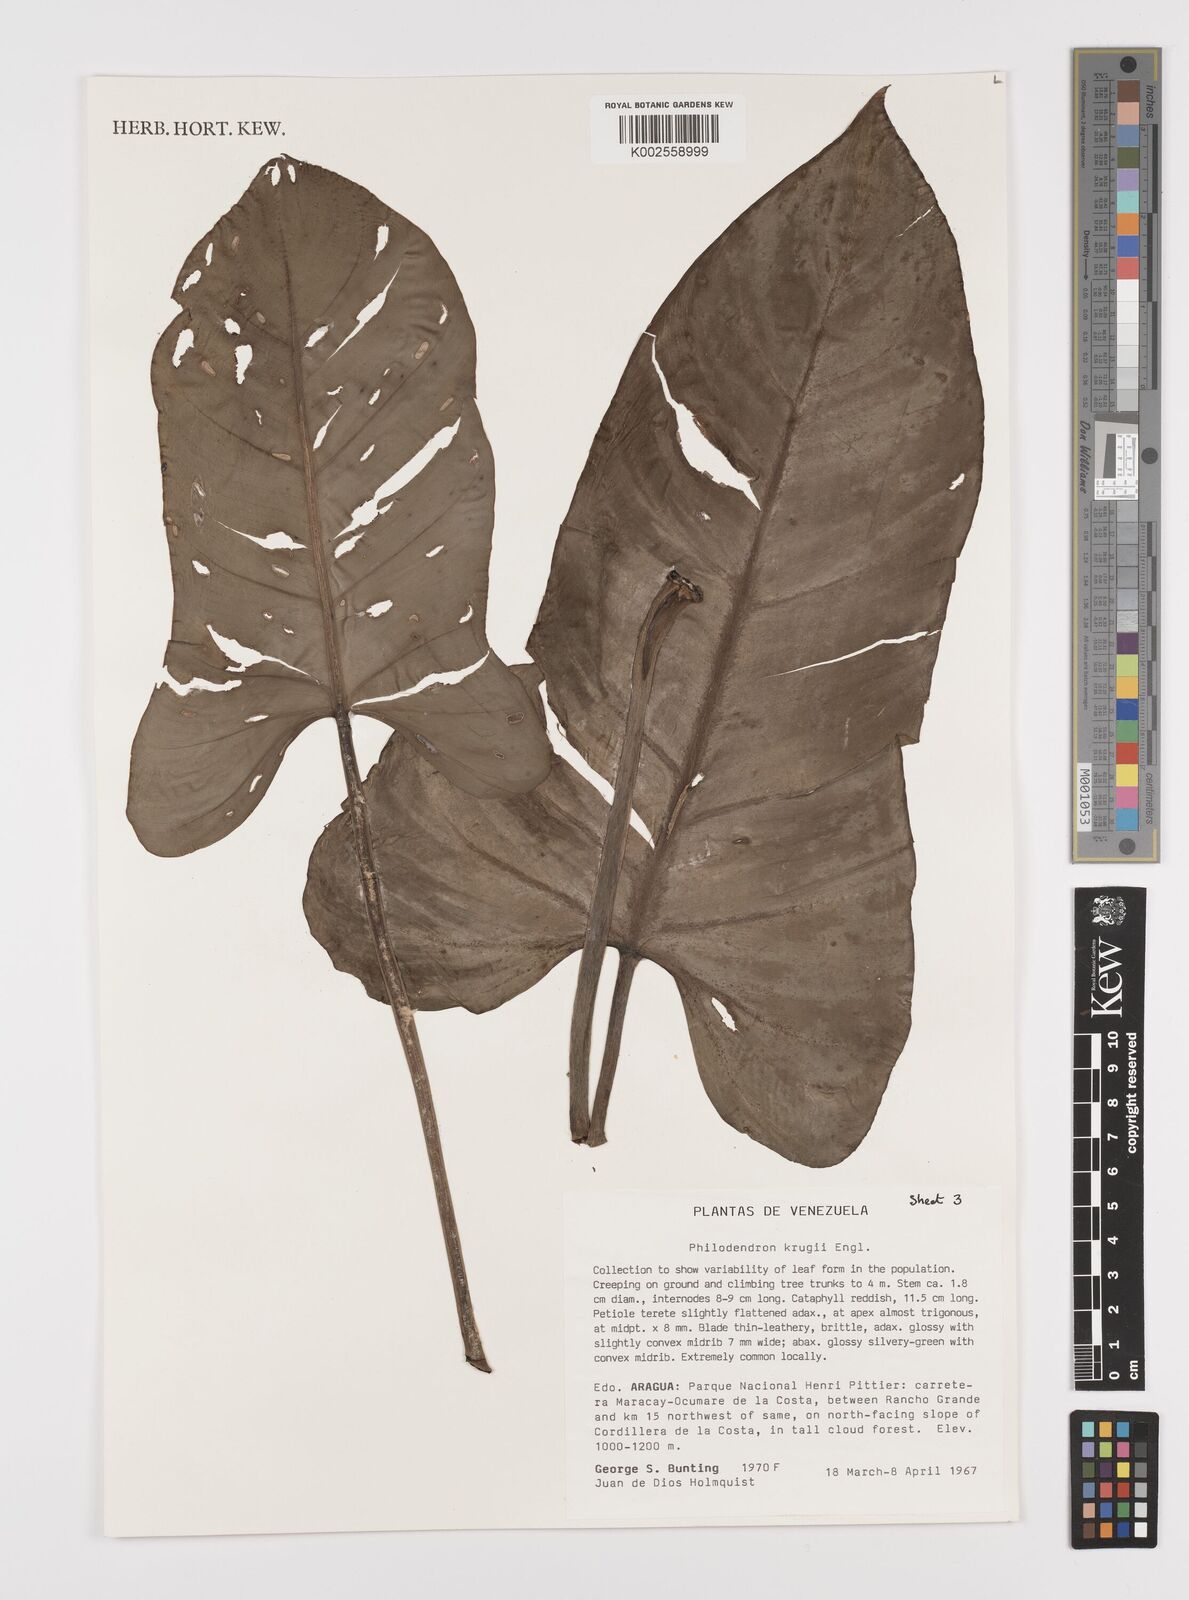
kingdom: Plantae
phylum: Tracheophyta
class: Liliopsida
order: Alismatales
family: Araceae
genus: Philodendron
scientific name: Philodendron krugii
